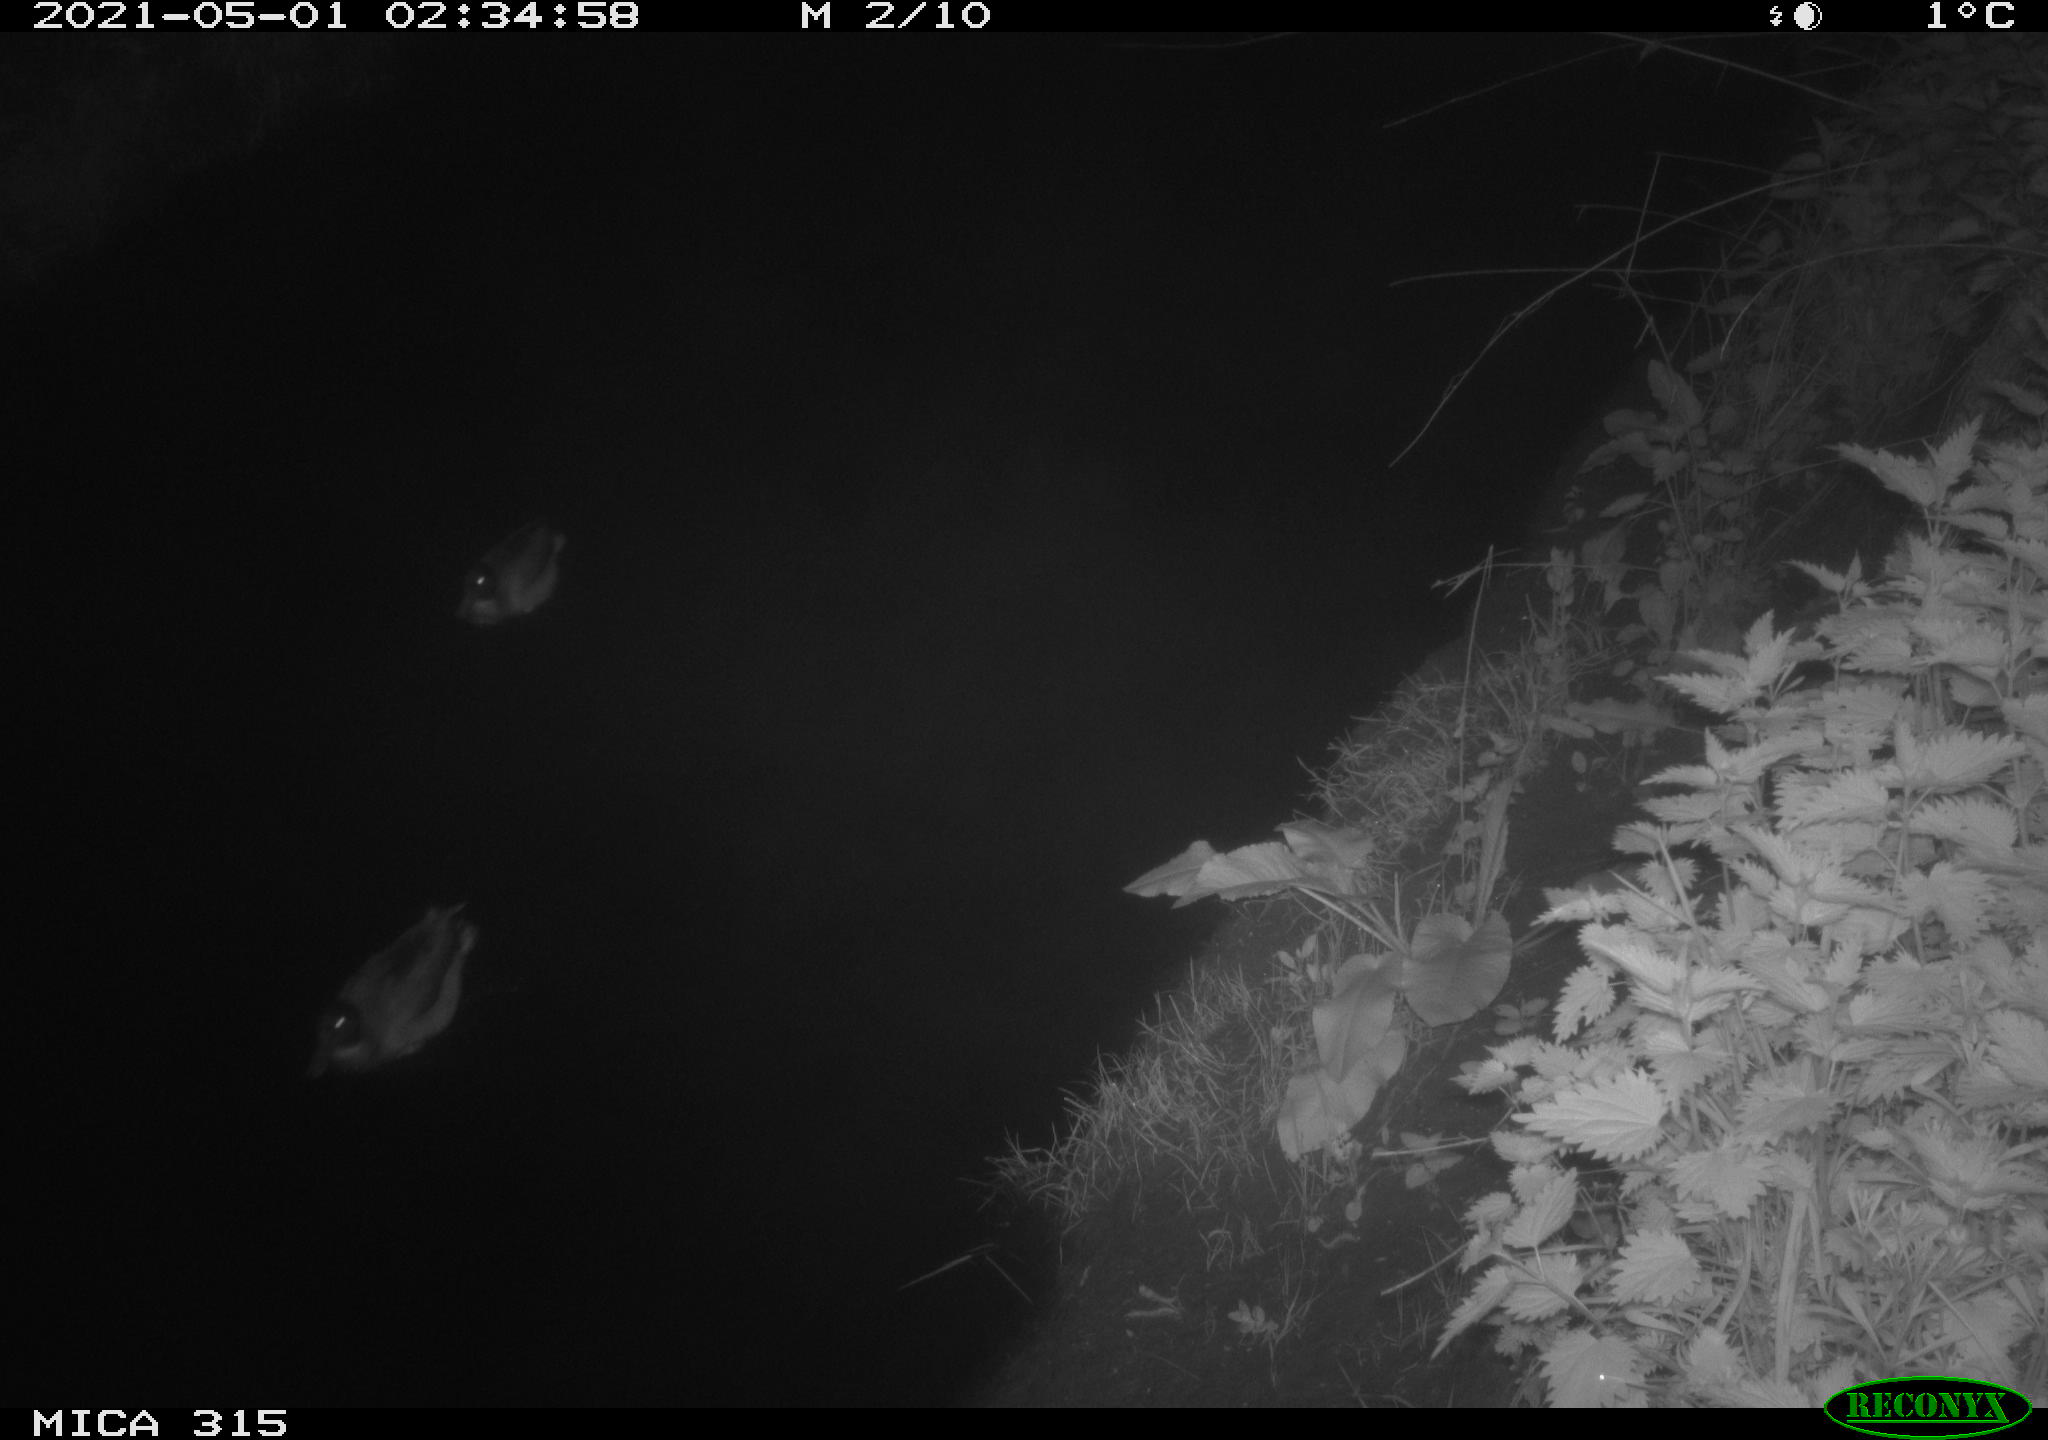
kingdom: Animalia
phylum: Chordata
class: Aves
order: Anseriformes
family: Anatidae
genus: Anas
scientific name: Anas
